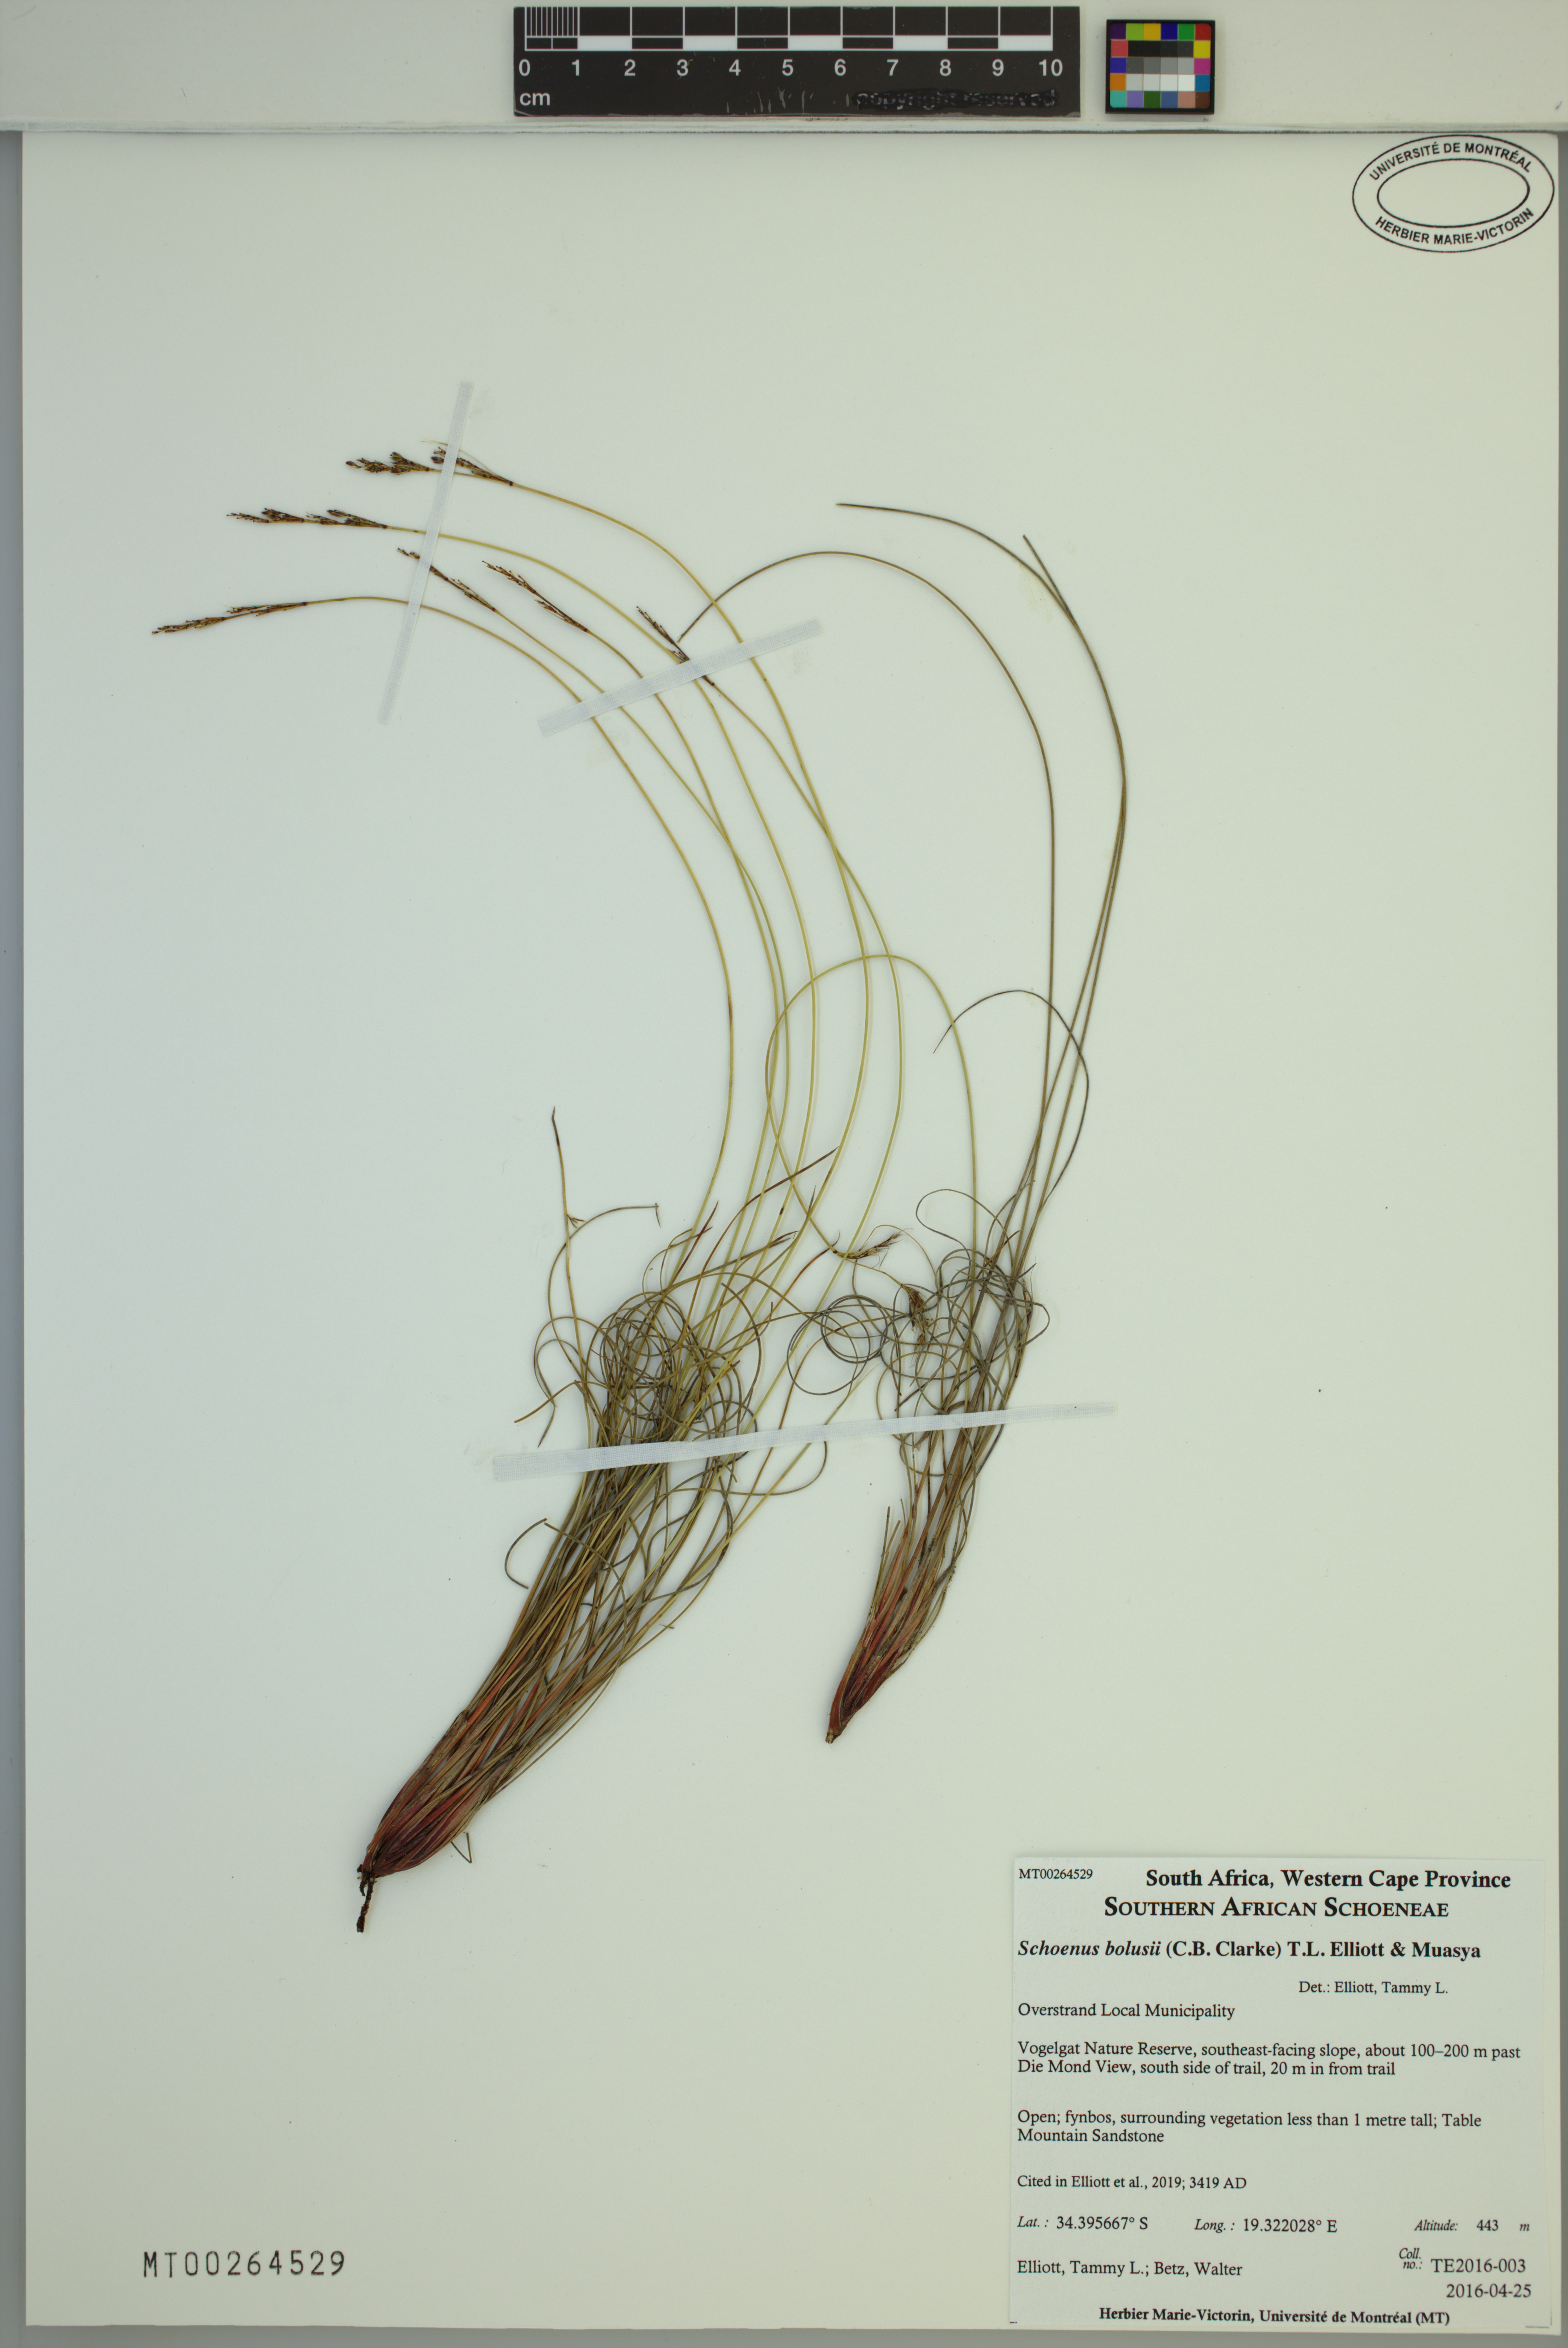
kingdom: Plantae
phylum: Tracheophyta
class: Liliopsida
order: Poales
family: Cyperaceae
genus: Schoenus
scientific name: Schoenus bolusii
